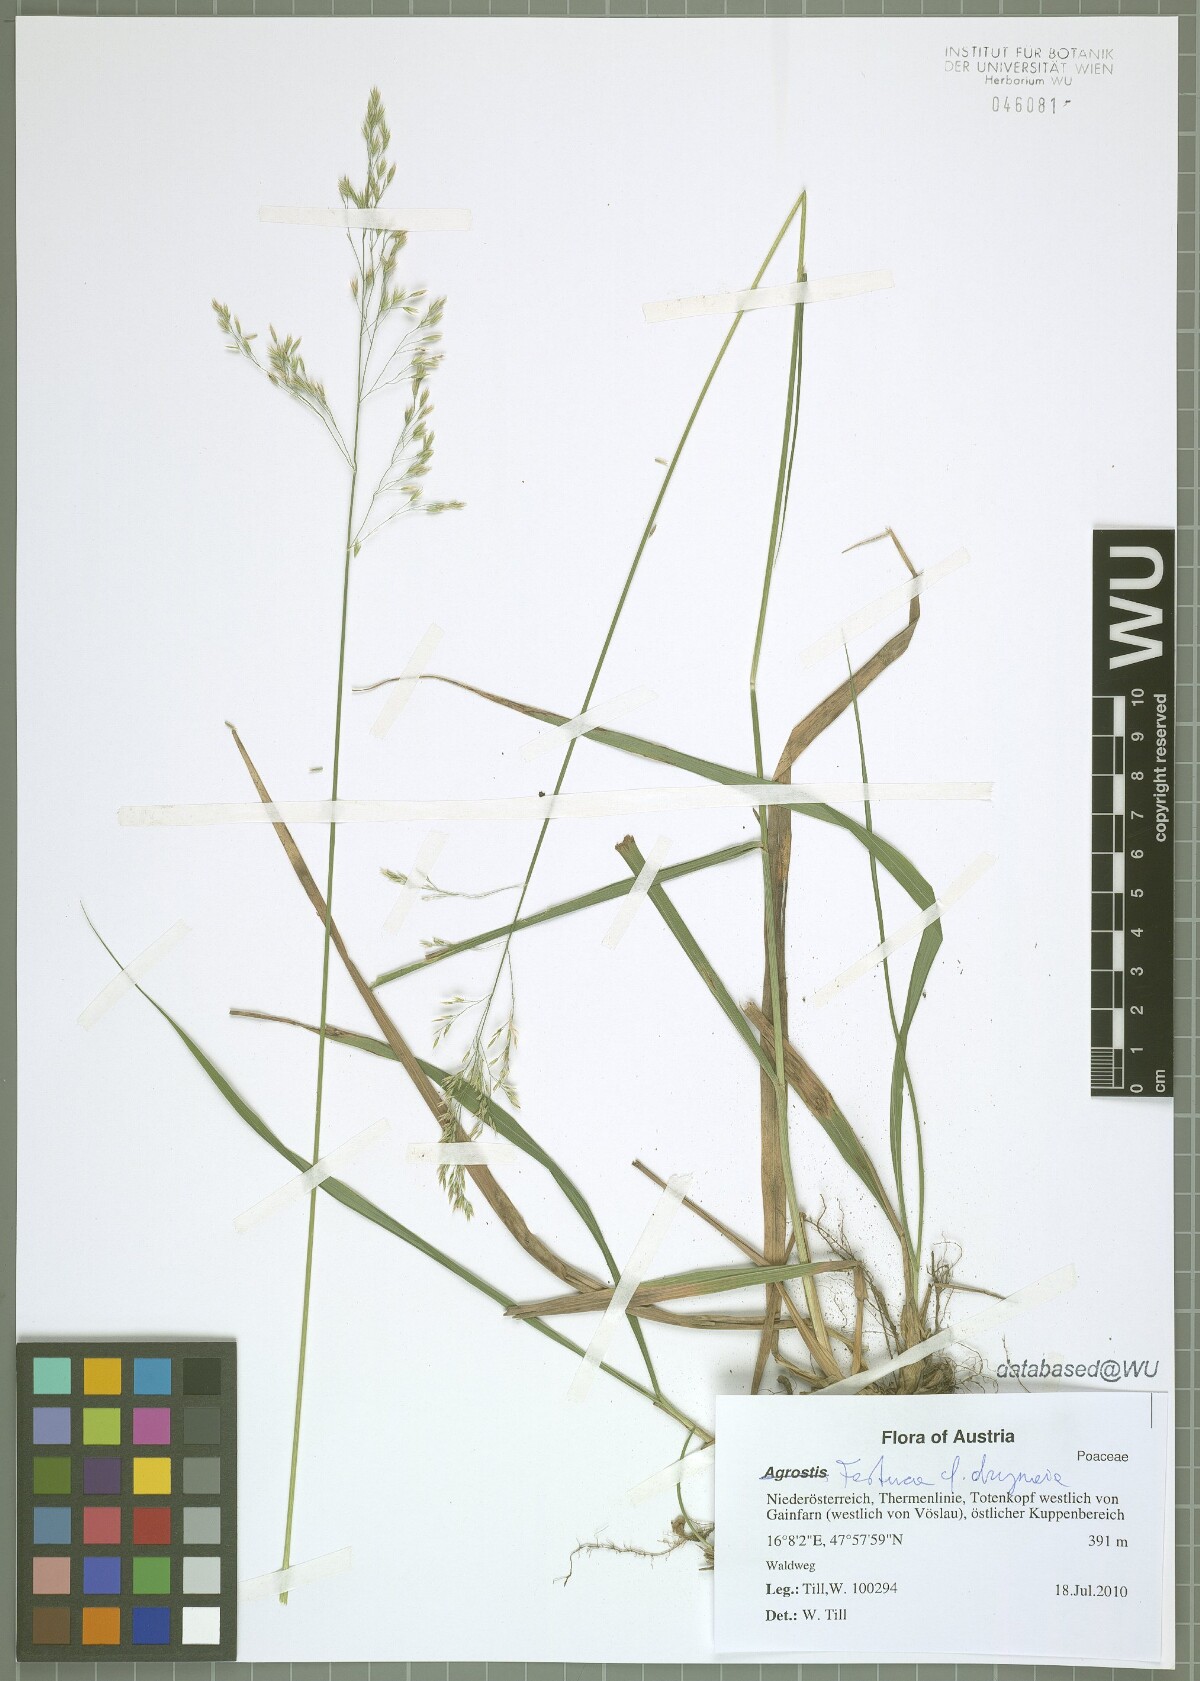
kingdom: Plantae
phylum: Tracheophyta
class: Liliopsida
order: Poales
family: Poaceae
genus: Festuca
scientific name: Festuca drymeja
